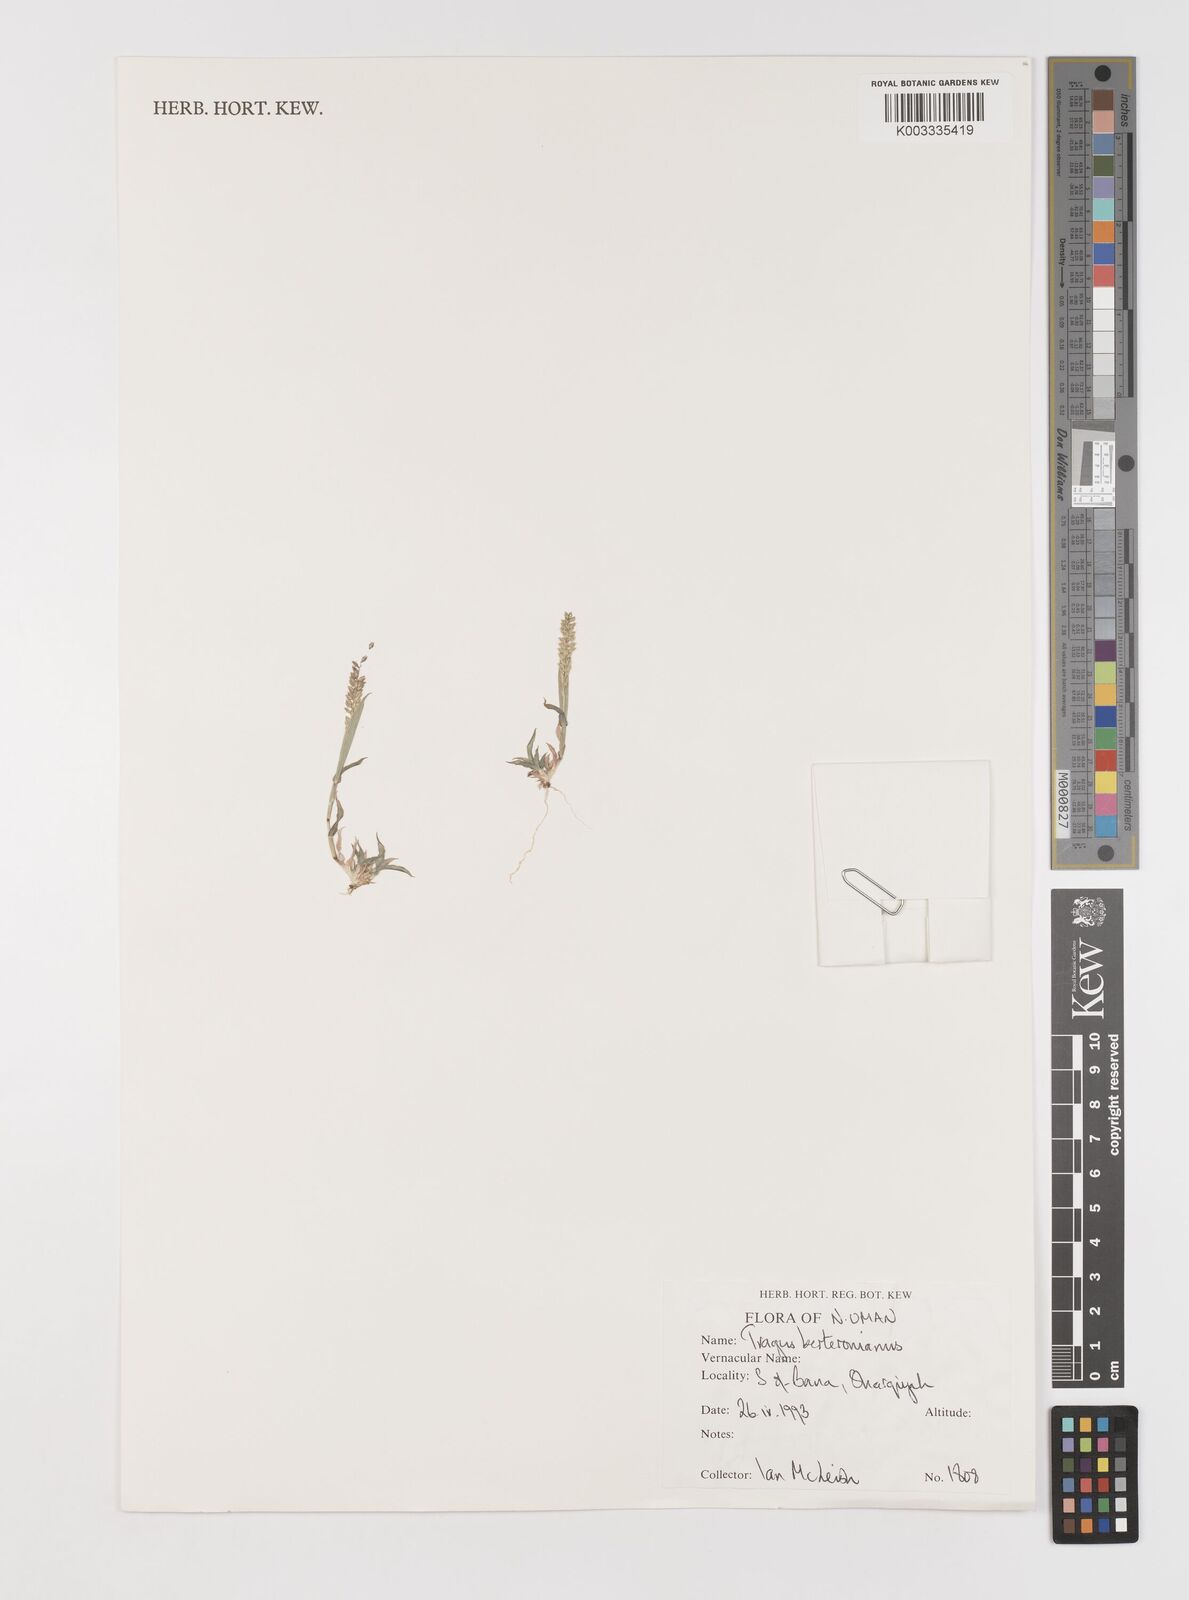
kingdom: Plantae
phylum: Tracheophyta
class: Liliopsida
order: Poales
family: Poaceae
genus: Tragus
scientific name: Tragus berteronianus
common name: African bur-grass
